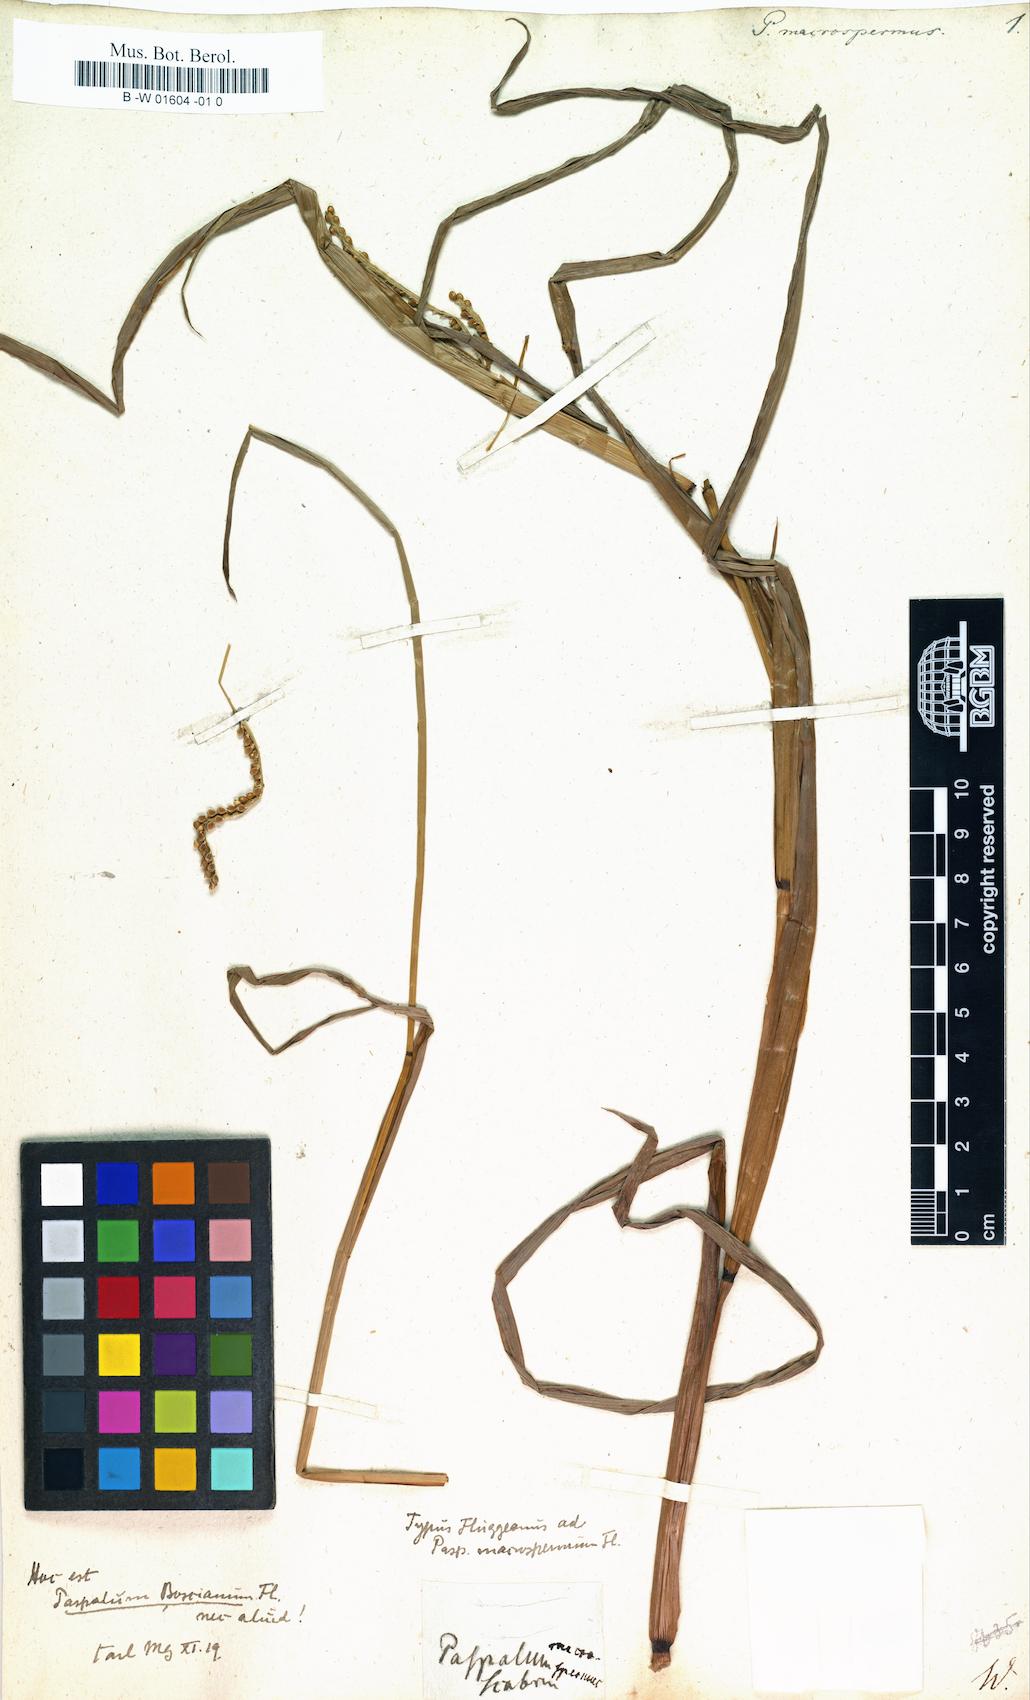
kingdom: Plantae
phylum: Tracheophyta
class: Liliopsida
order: Poales
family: Poaceae
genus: Paspalus
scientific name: Paspalus
